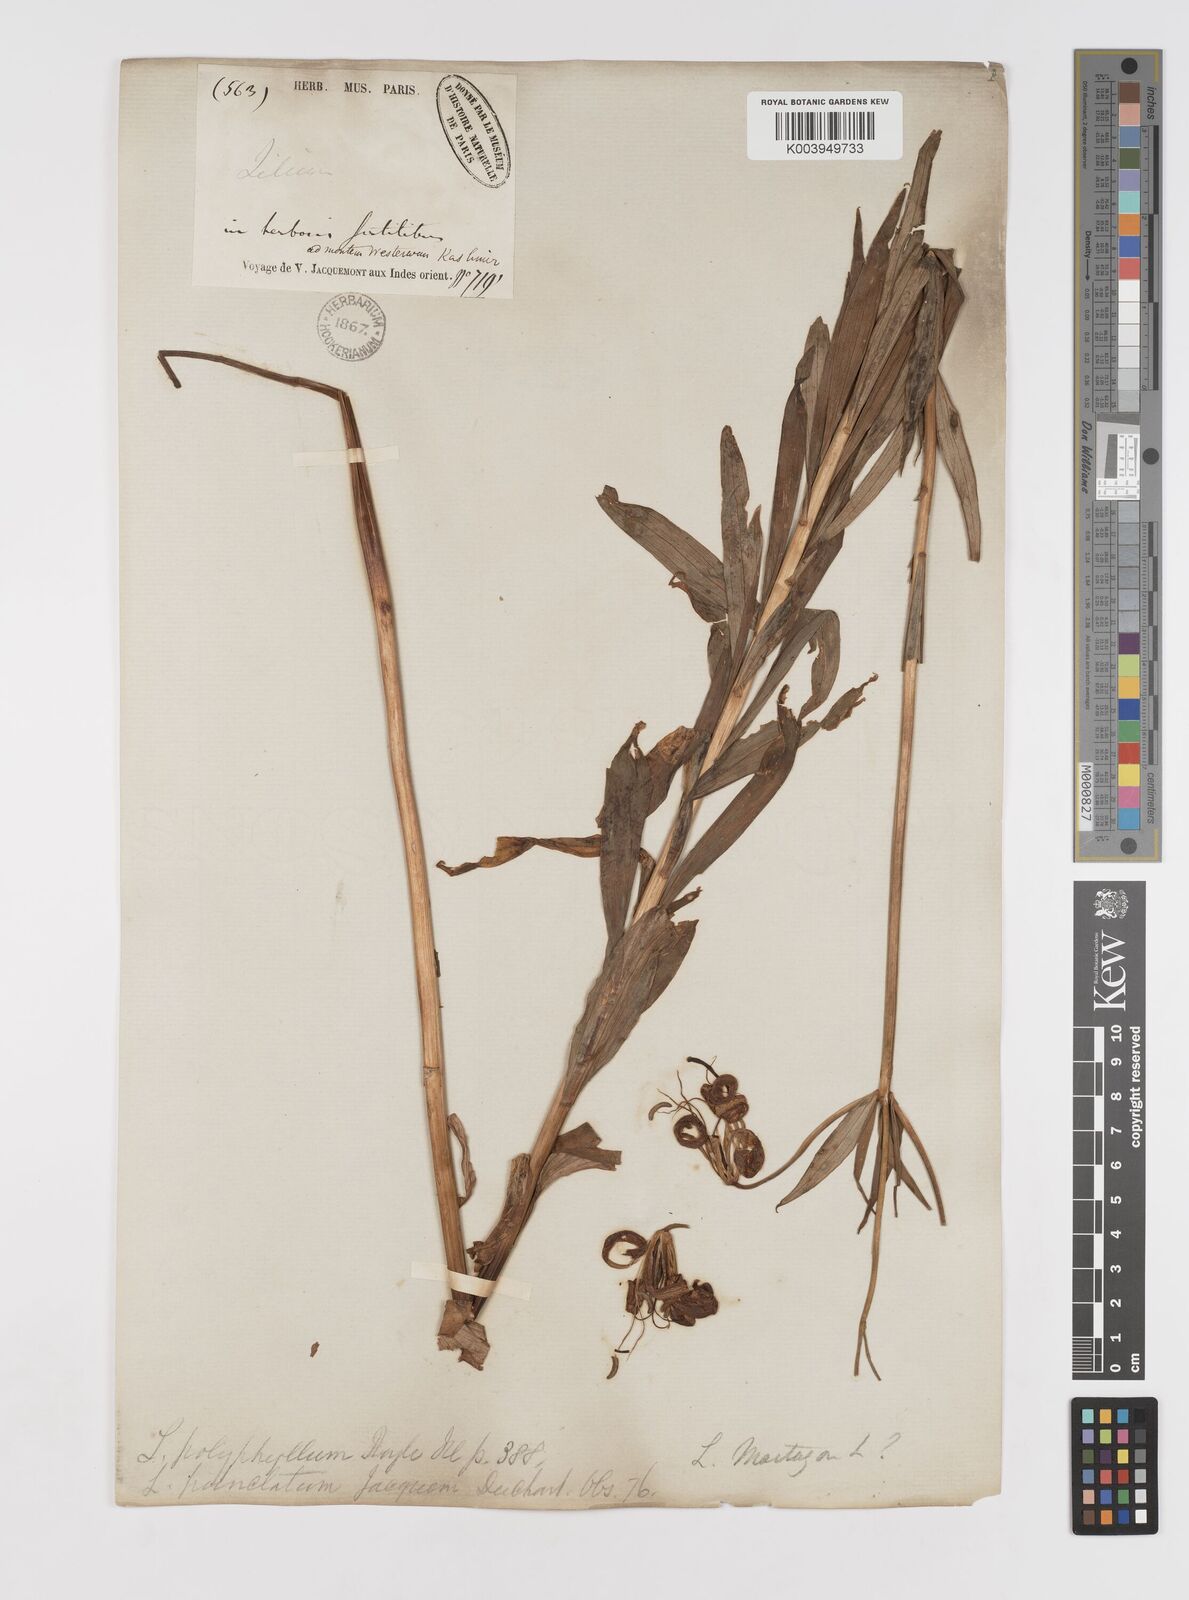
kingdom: Plantae
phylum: Tracheophyta
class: Liliopsida
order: Liliales
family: Liliaceae
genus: Lilium
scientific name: Lilium polyphyllum
